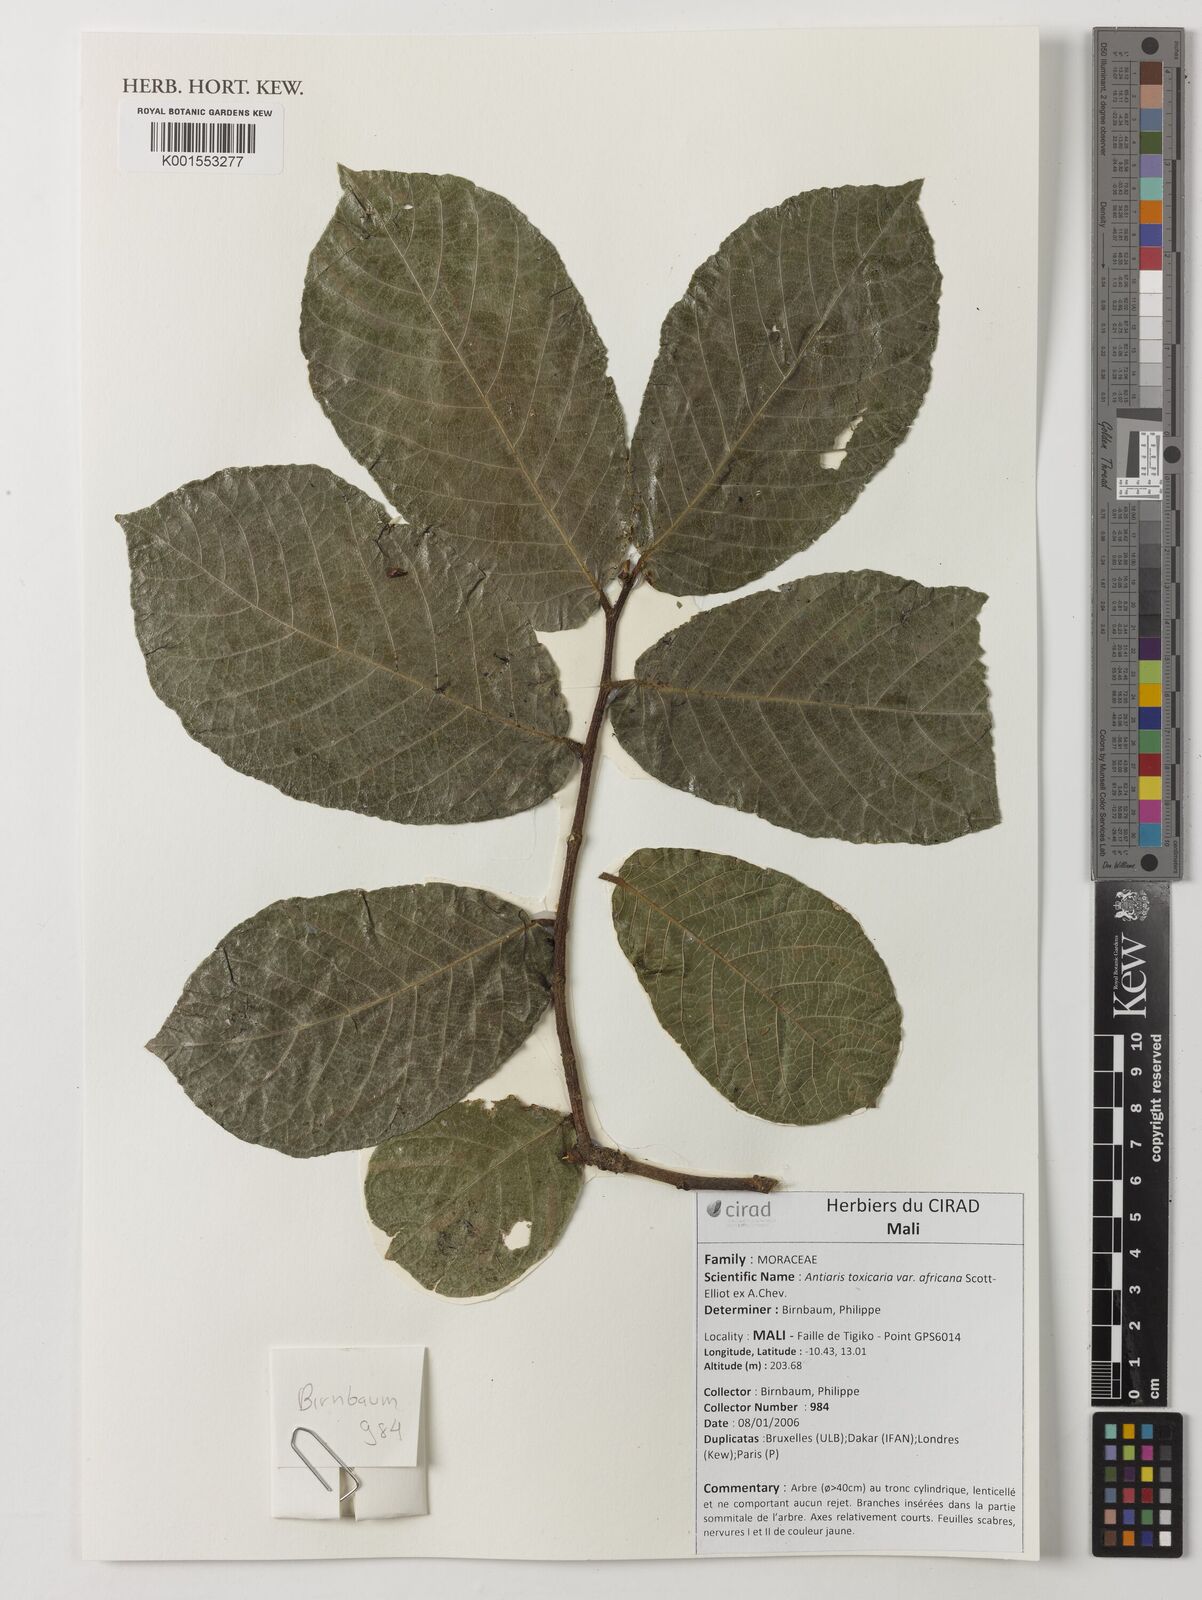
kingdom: Plantae
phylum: Tracheophyta
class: Magnoliopsida
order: Rosales
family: Moraceae
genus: Antiaris
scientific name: Antiaris toxicaria
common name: Sackingtree
